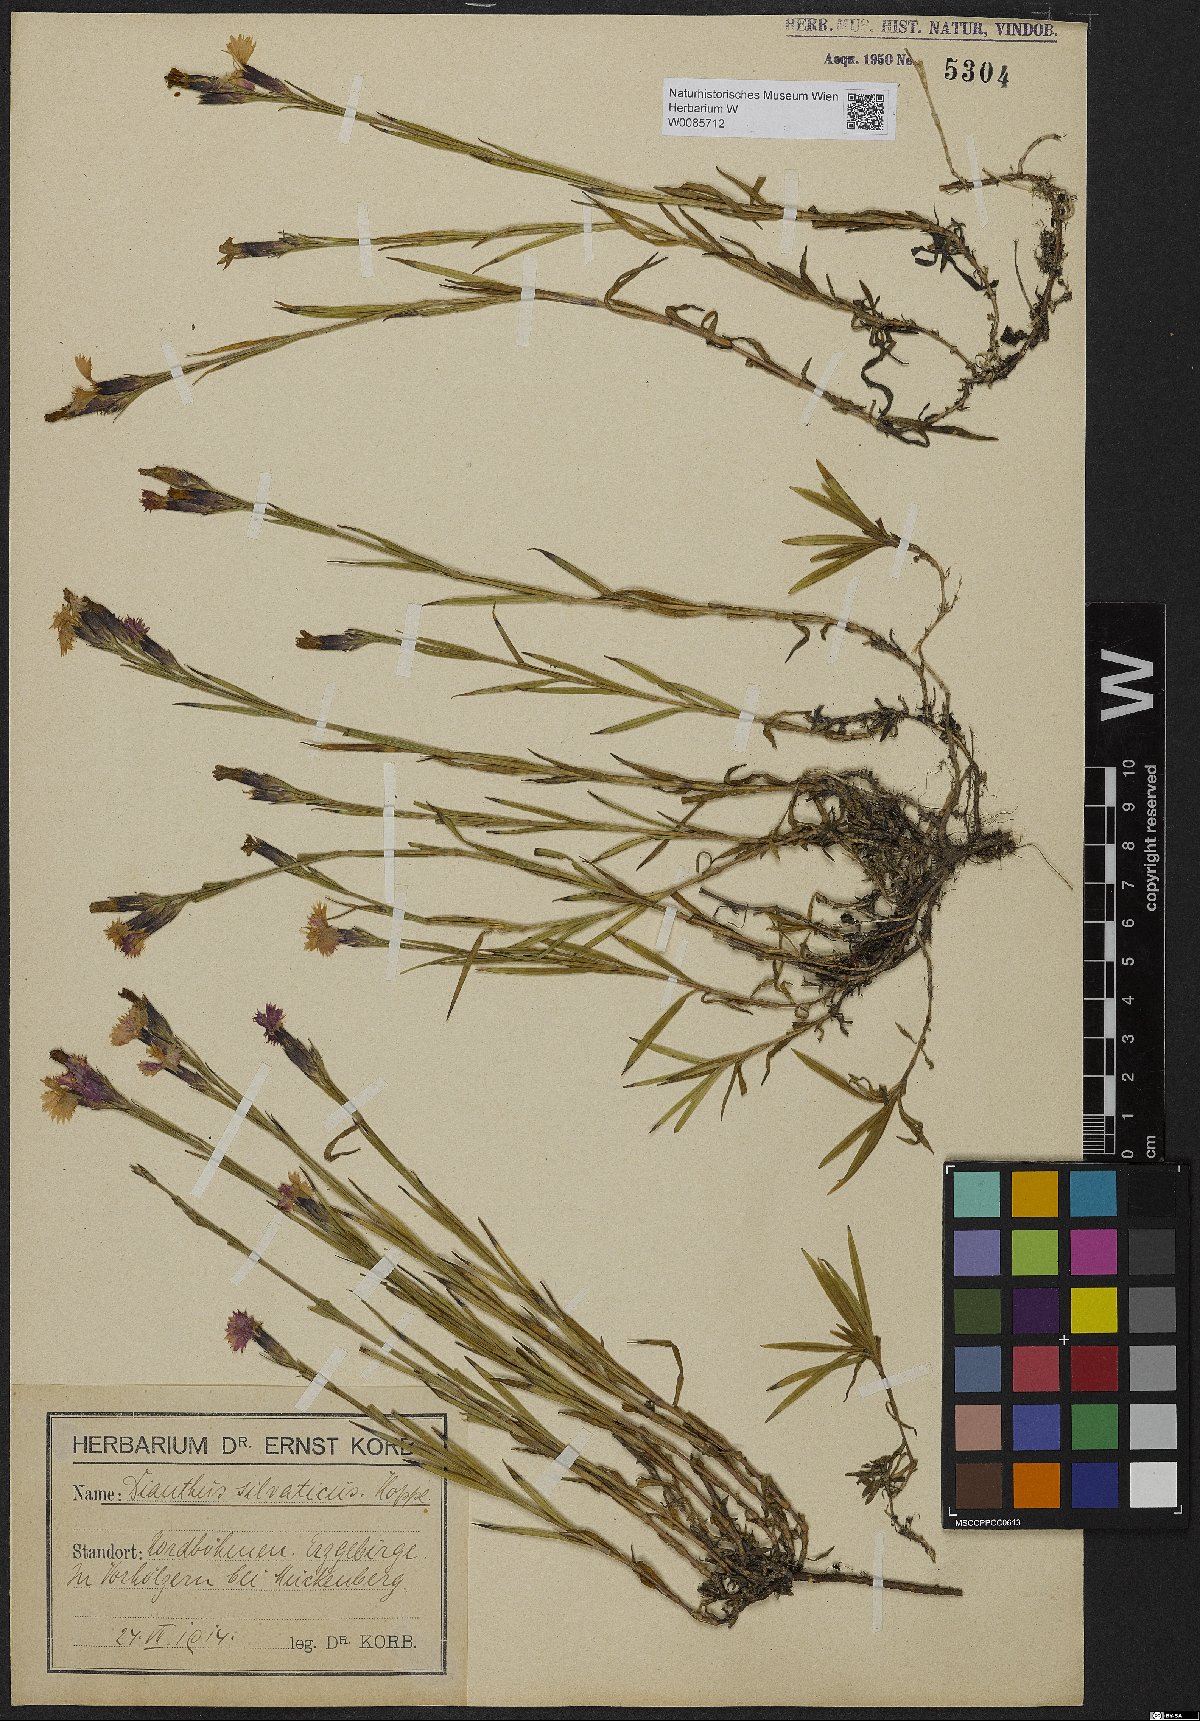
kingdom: Plantae
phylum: Tracheophyta
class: Magnoliopsida
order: Caryophyllales
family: Caryophyllaceae
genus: Dianthus
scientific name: Dianthus seguieri
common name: Ragged pink
